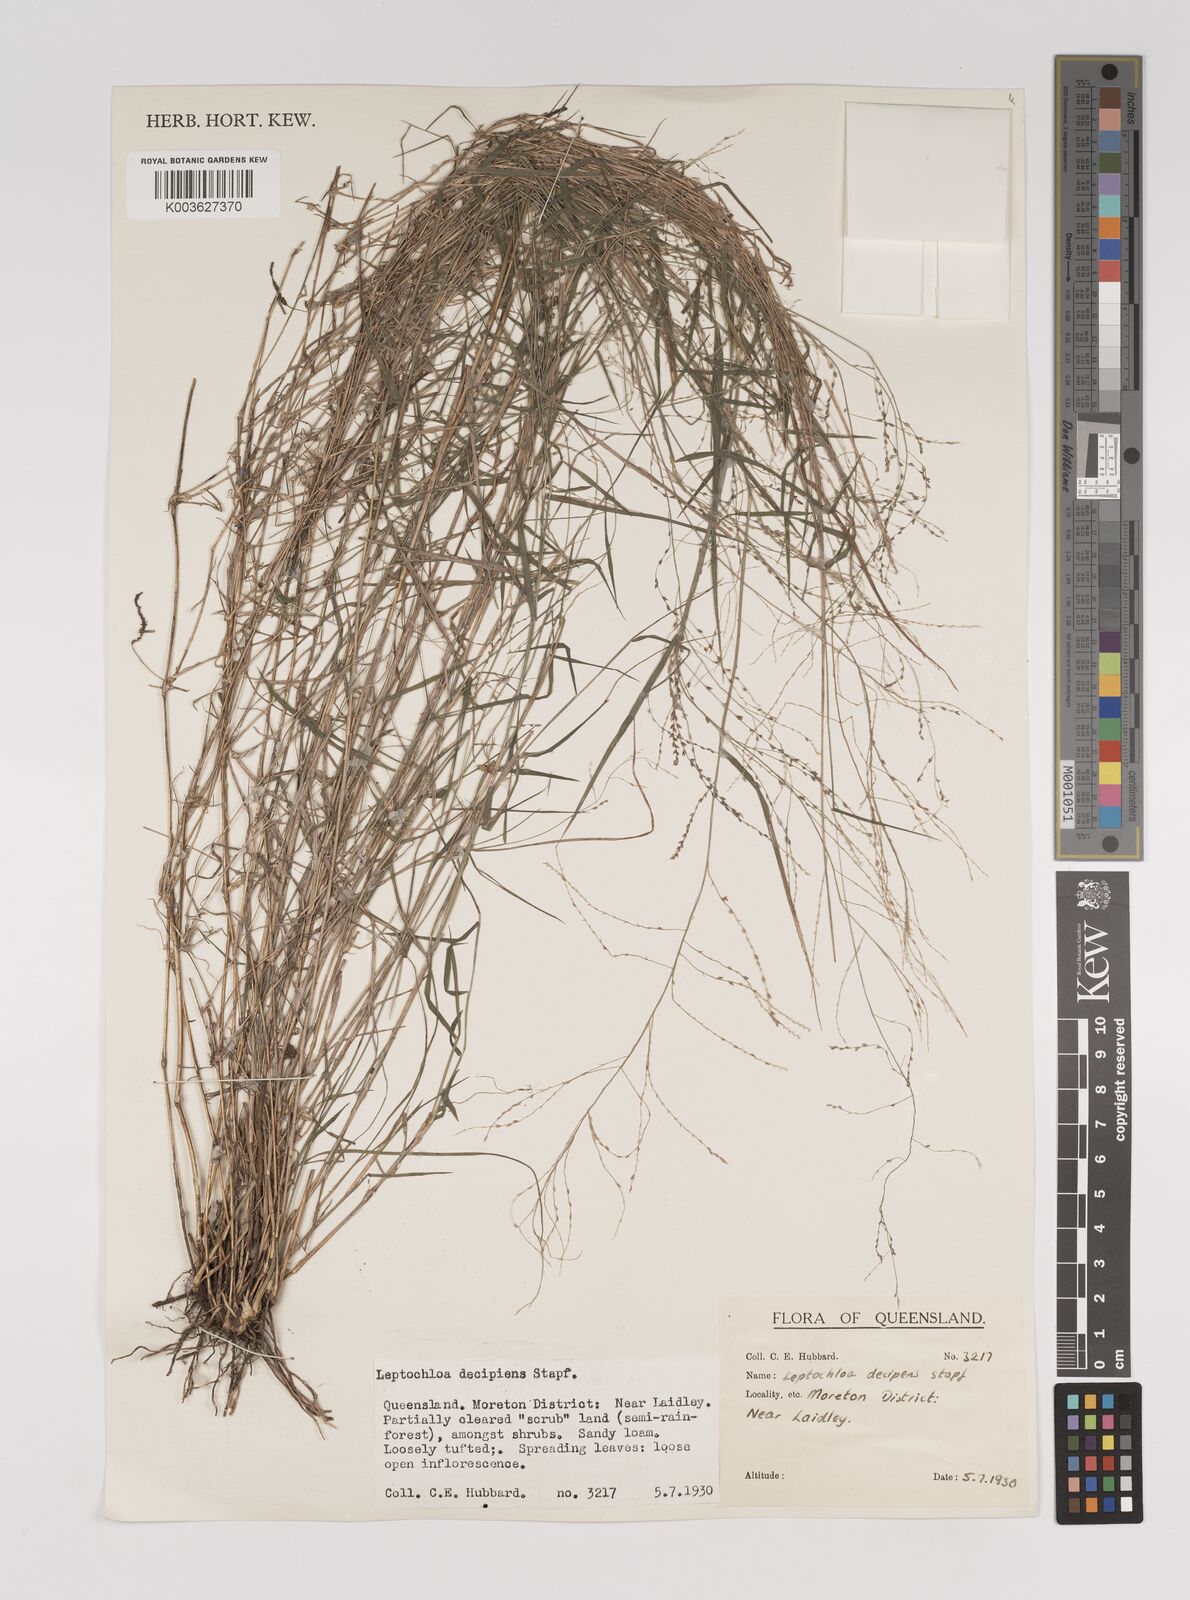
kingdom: Plantae
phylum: Tracheophyta
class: Liliopsida
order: Poales
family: Poaceae
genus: Leptochloa
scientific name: Leptochloa decipiens
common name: Australian sprangletop
